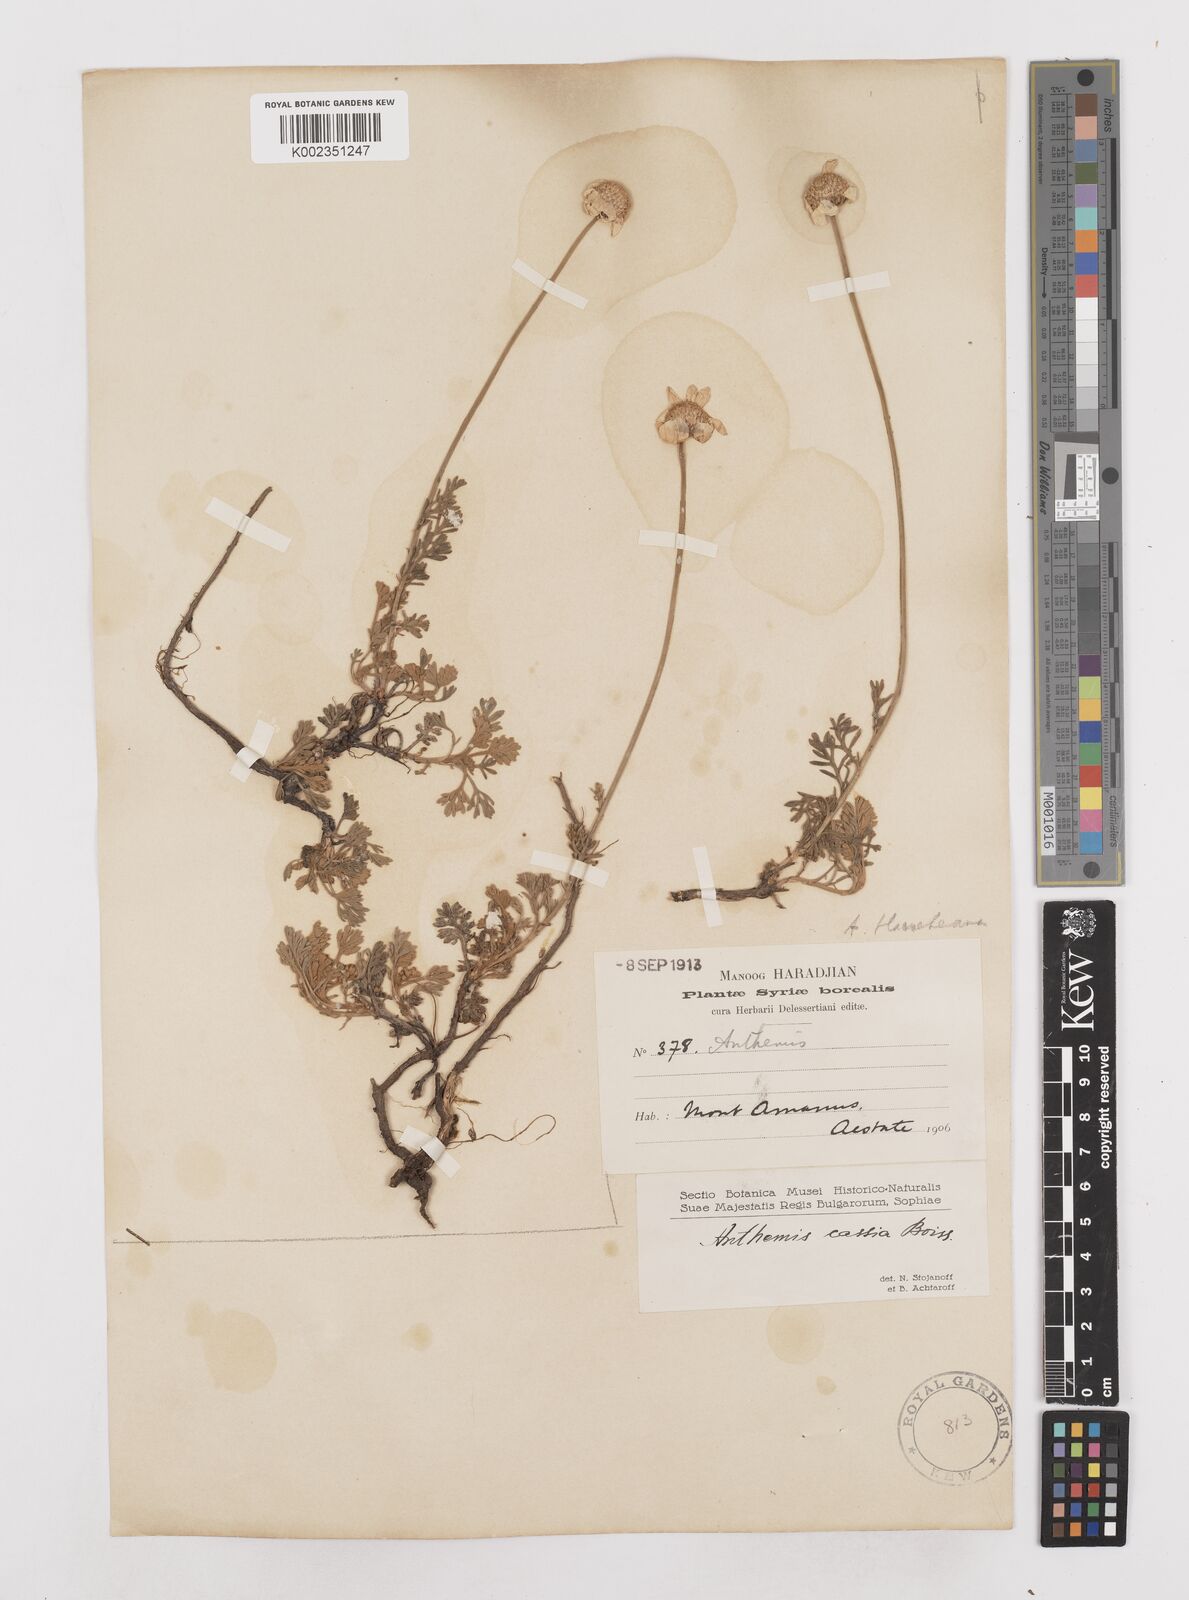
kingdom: Plantae
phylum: Tracheophyta
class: Magnoliopsida
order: Asterales
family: Asteraceae
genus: Anthemis
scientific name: Anthemis
